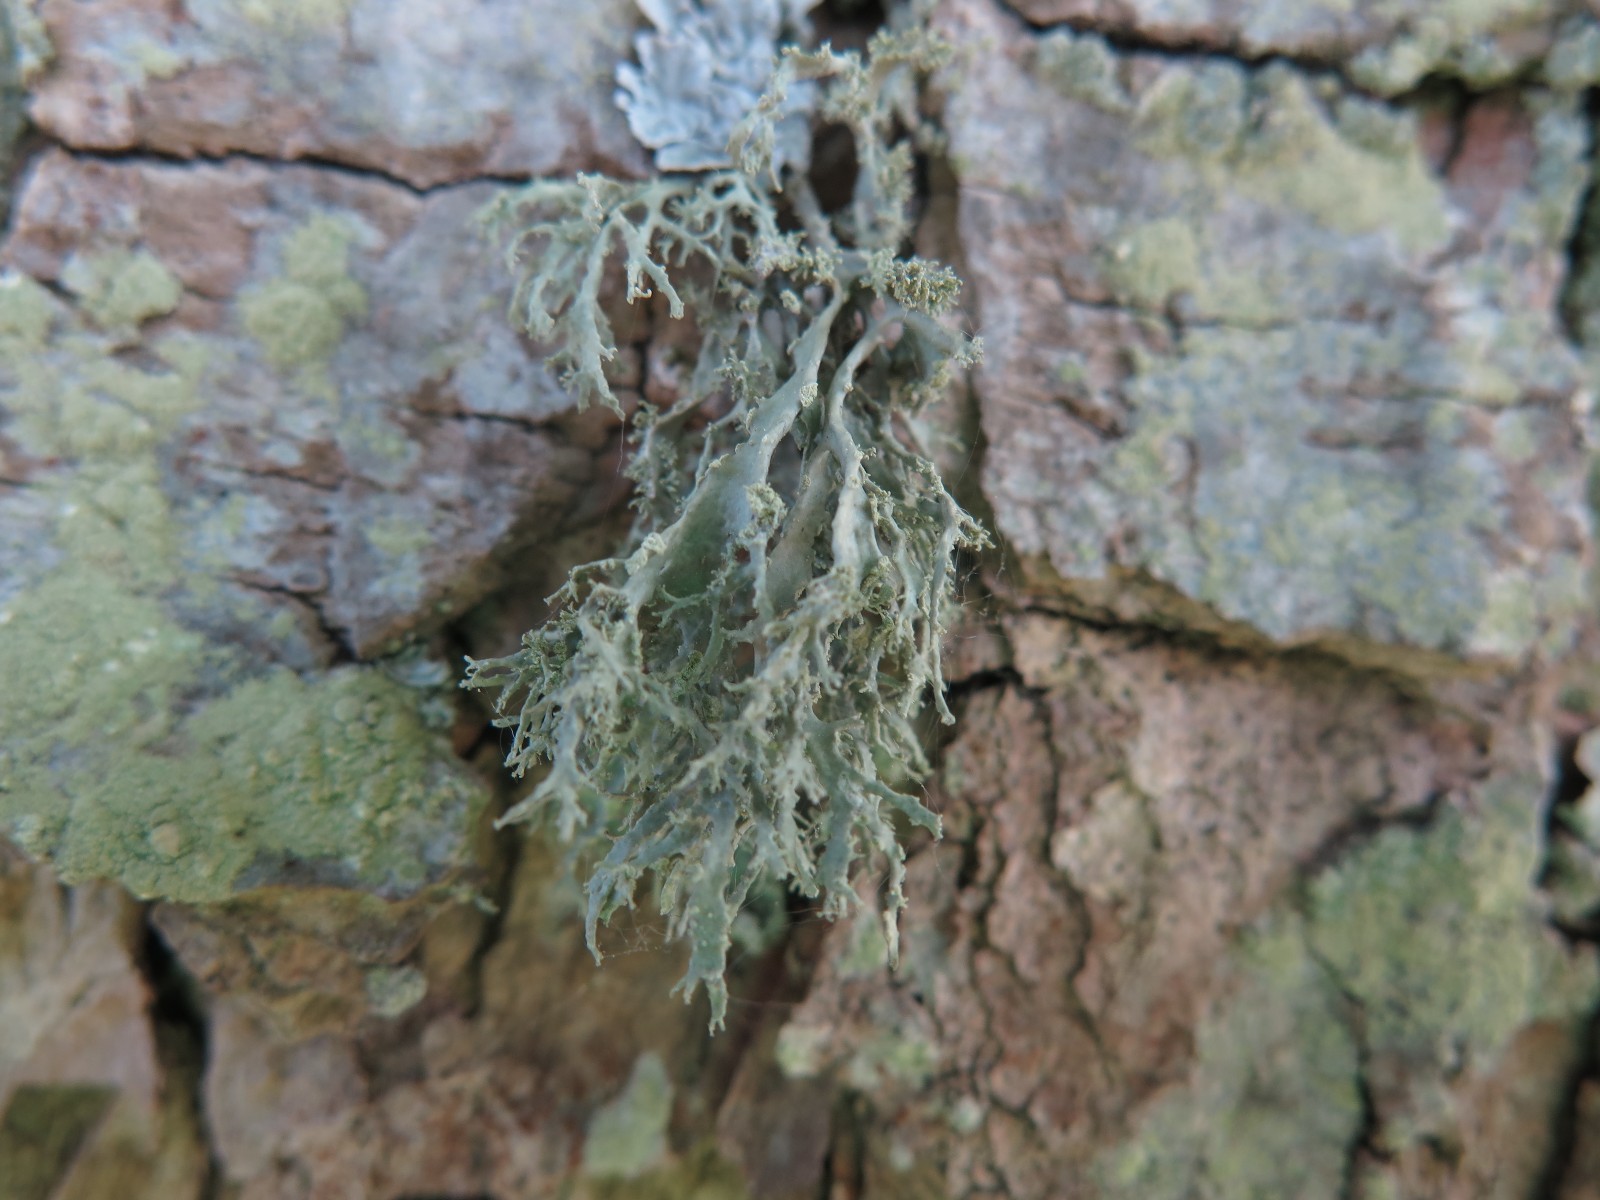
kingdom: Fungi
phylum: Ascomycota
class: Lecanoromycetes
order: Lecanorales
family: Ramalinaceae
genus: Ramalina
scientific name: Ramalina farinacea
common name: melet grenlav
